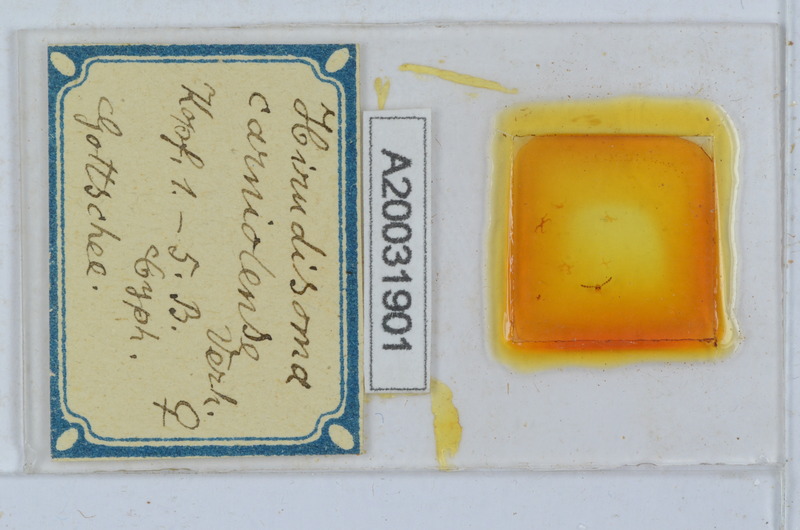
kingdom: Animalia
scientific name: Animalia
